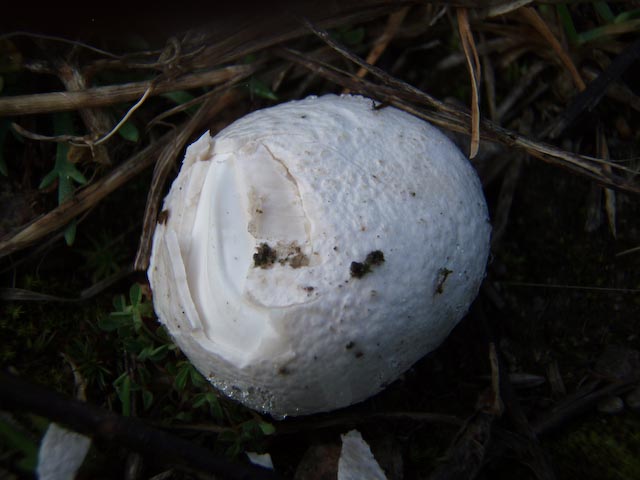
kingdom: Fungi
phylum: Basidiomycota
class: Agaricomycetes
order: Agaricales
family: Lycoperdaceae
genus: Bovista
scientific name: Bovista plumbea
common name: blygrå bovist
